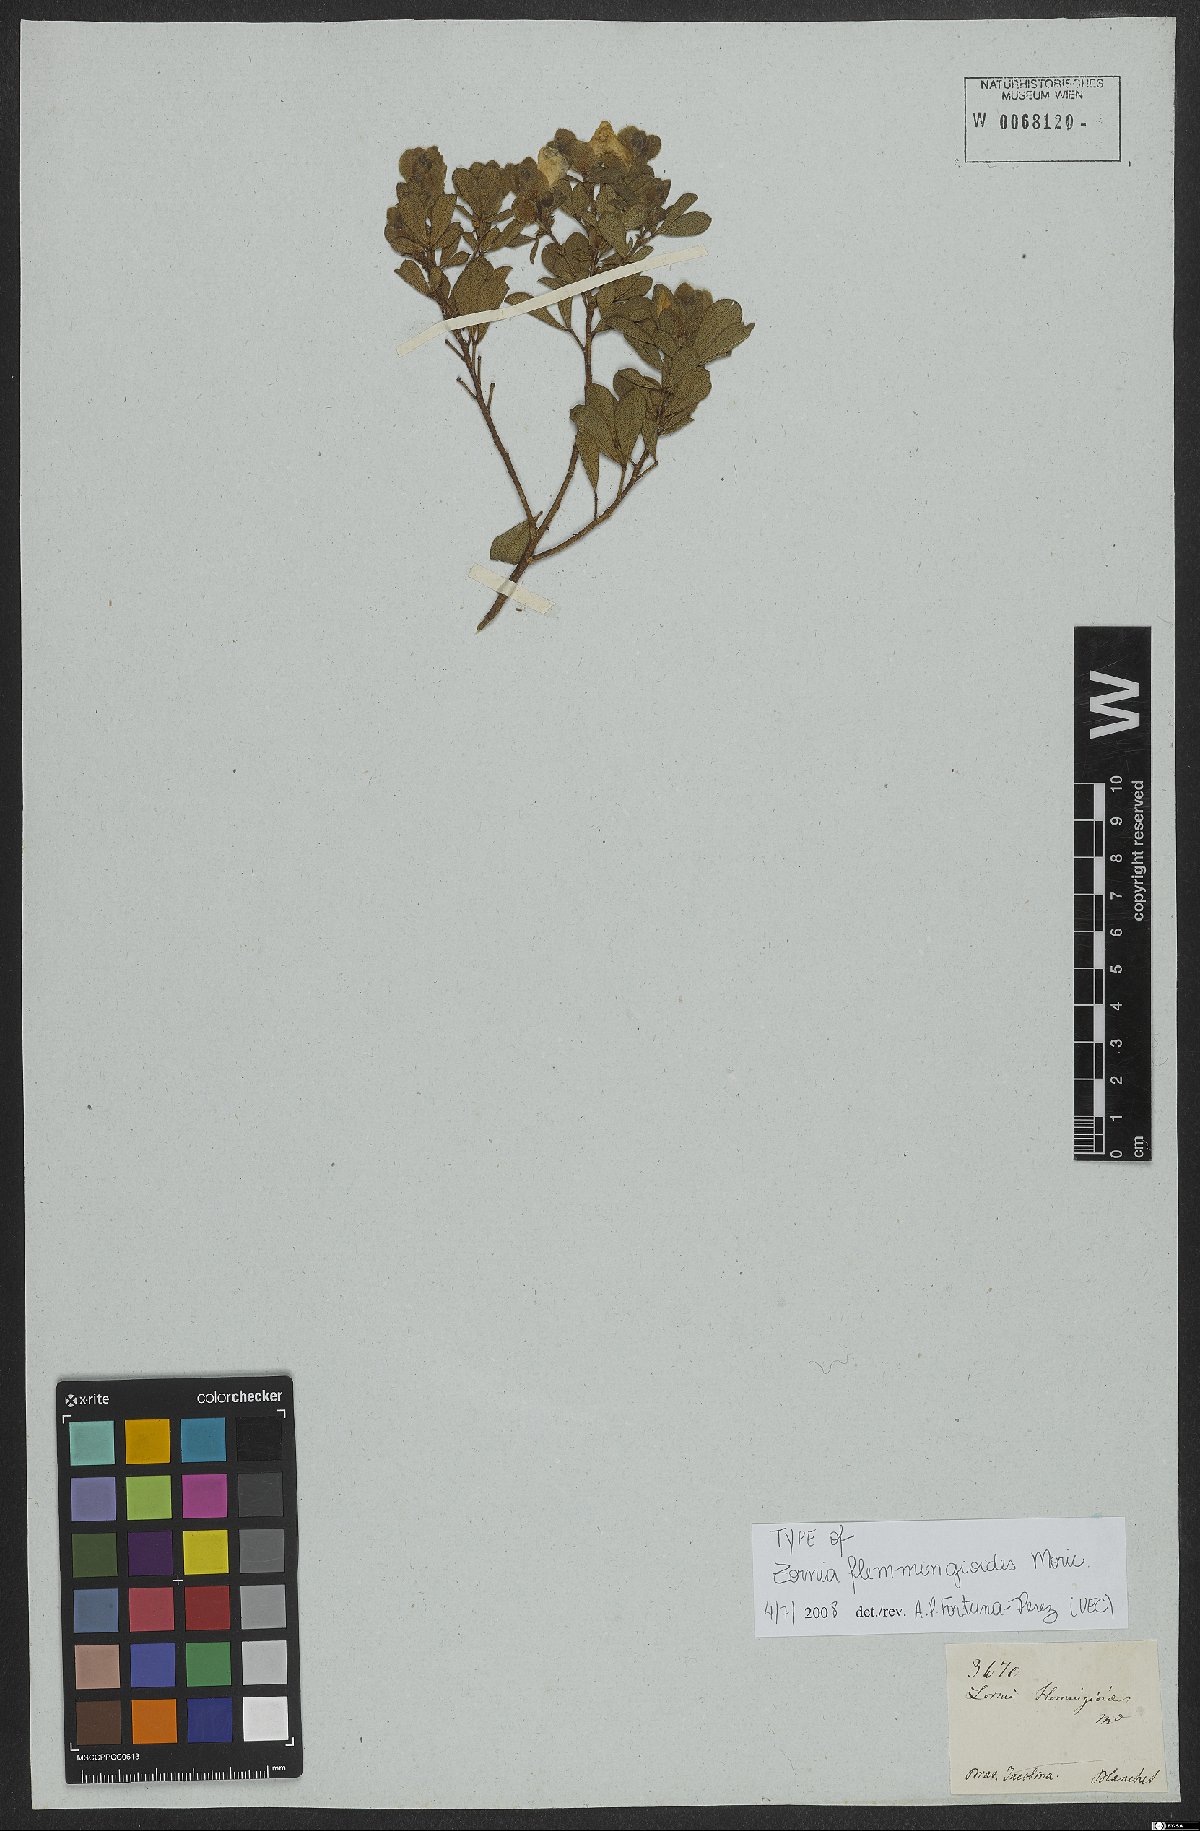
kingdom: Plantae
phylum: Tracheophyta
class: Magnoliopsida
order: Fabales
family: Fabaceae
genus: Zornia
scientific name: Zornia flemmingioides
